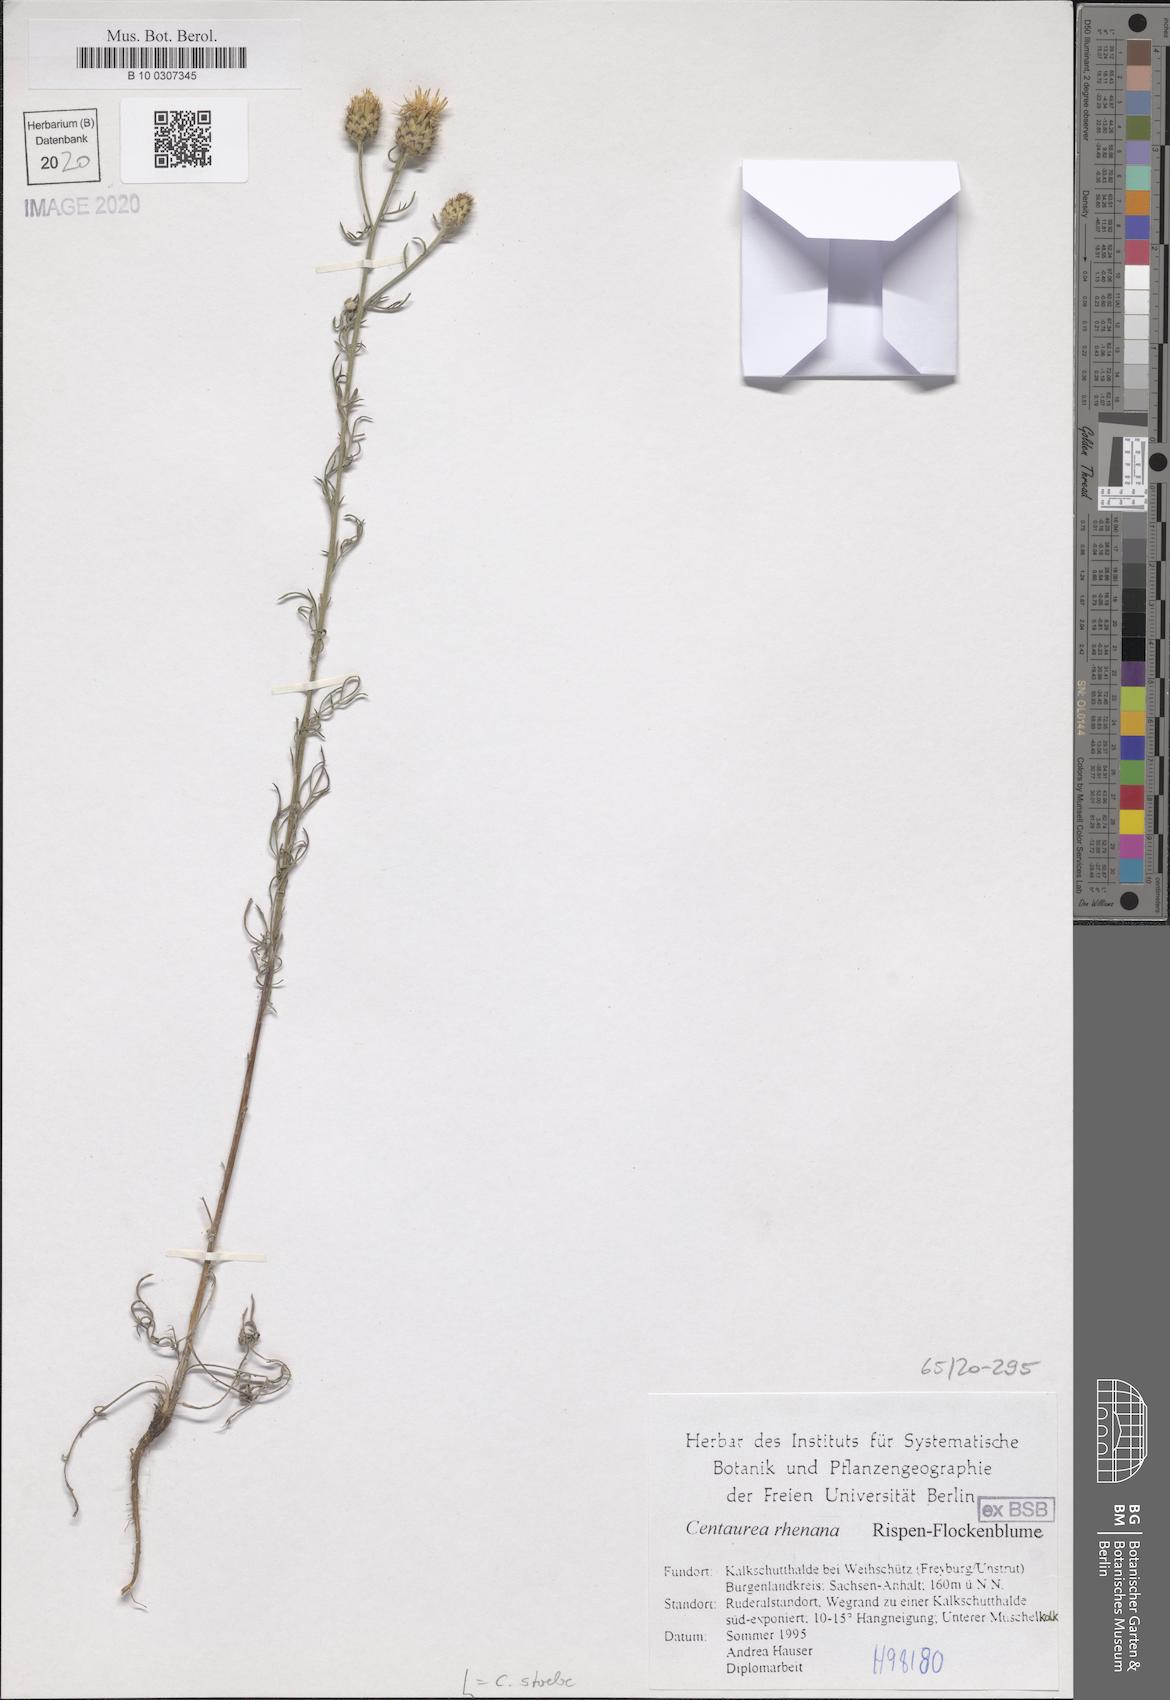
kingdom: Plantae
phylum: Tracheophyta
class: Magnoliopsida
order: Asterales
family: Asteraceae
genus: Centaurea
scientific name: Centaurea stoebe
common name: Spotted knapweed
